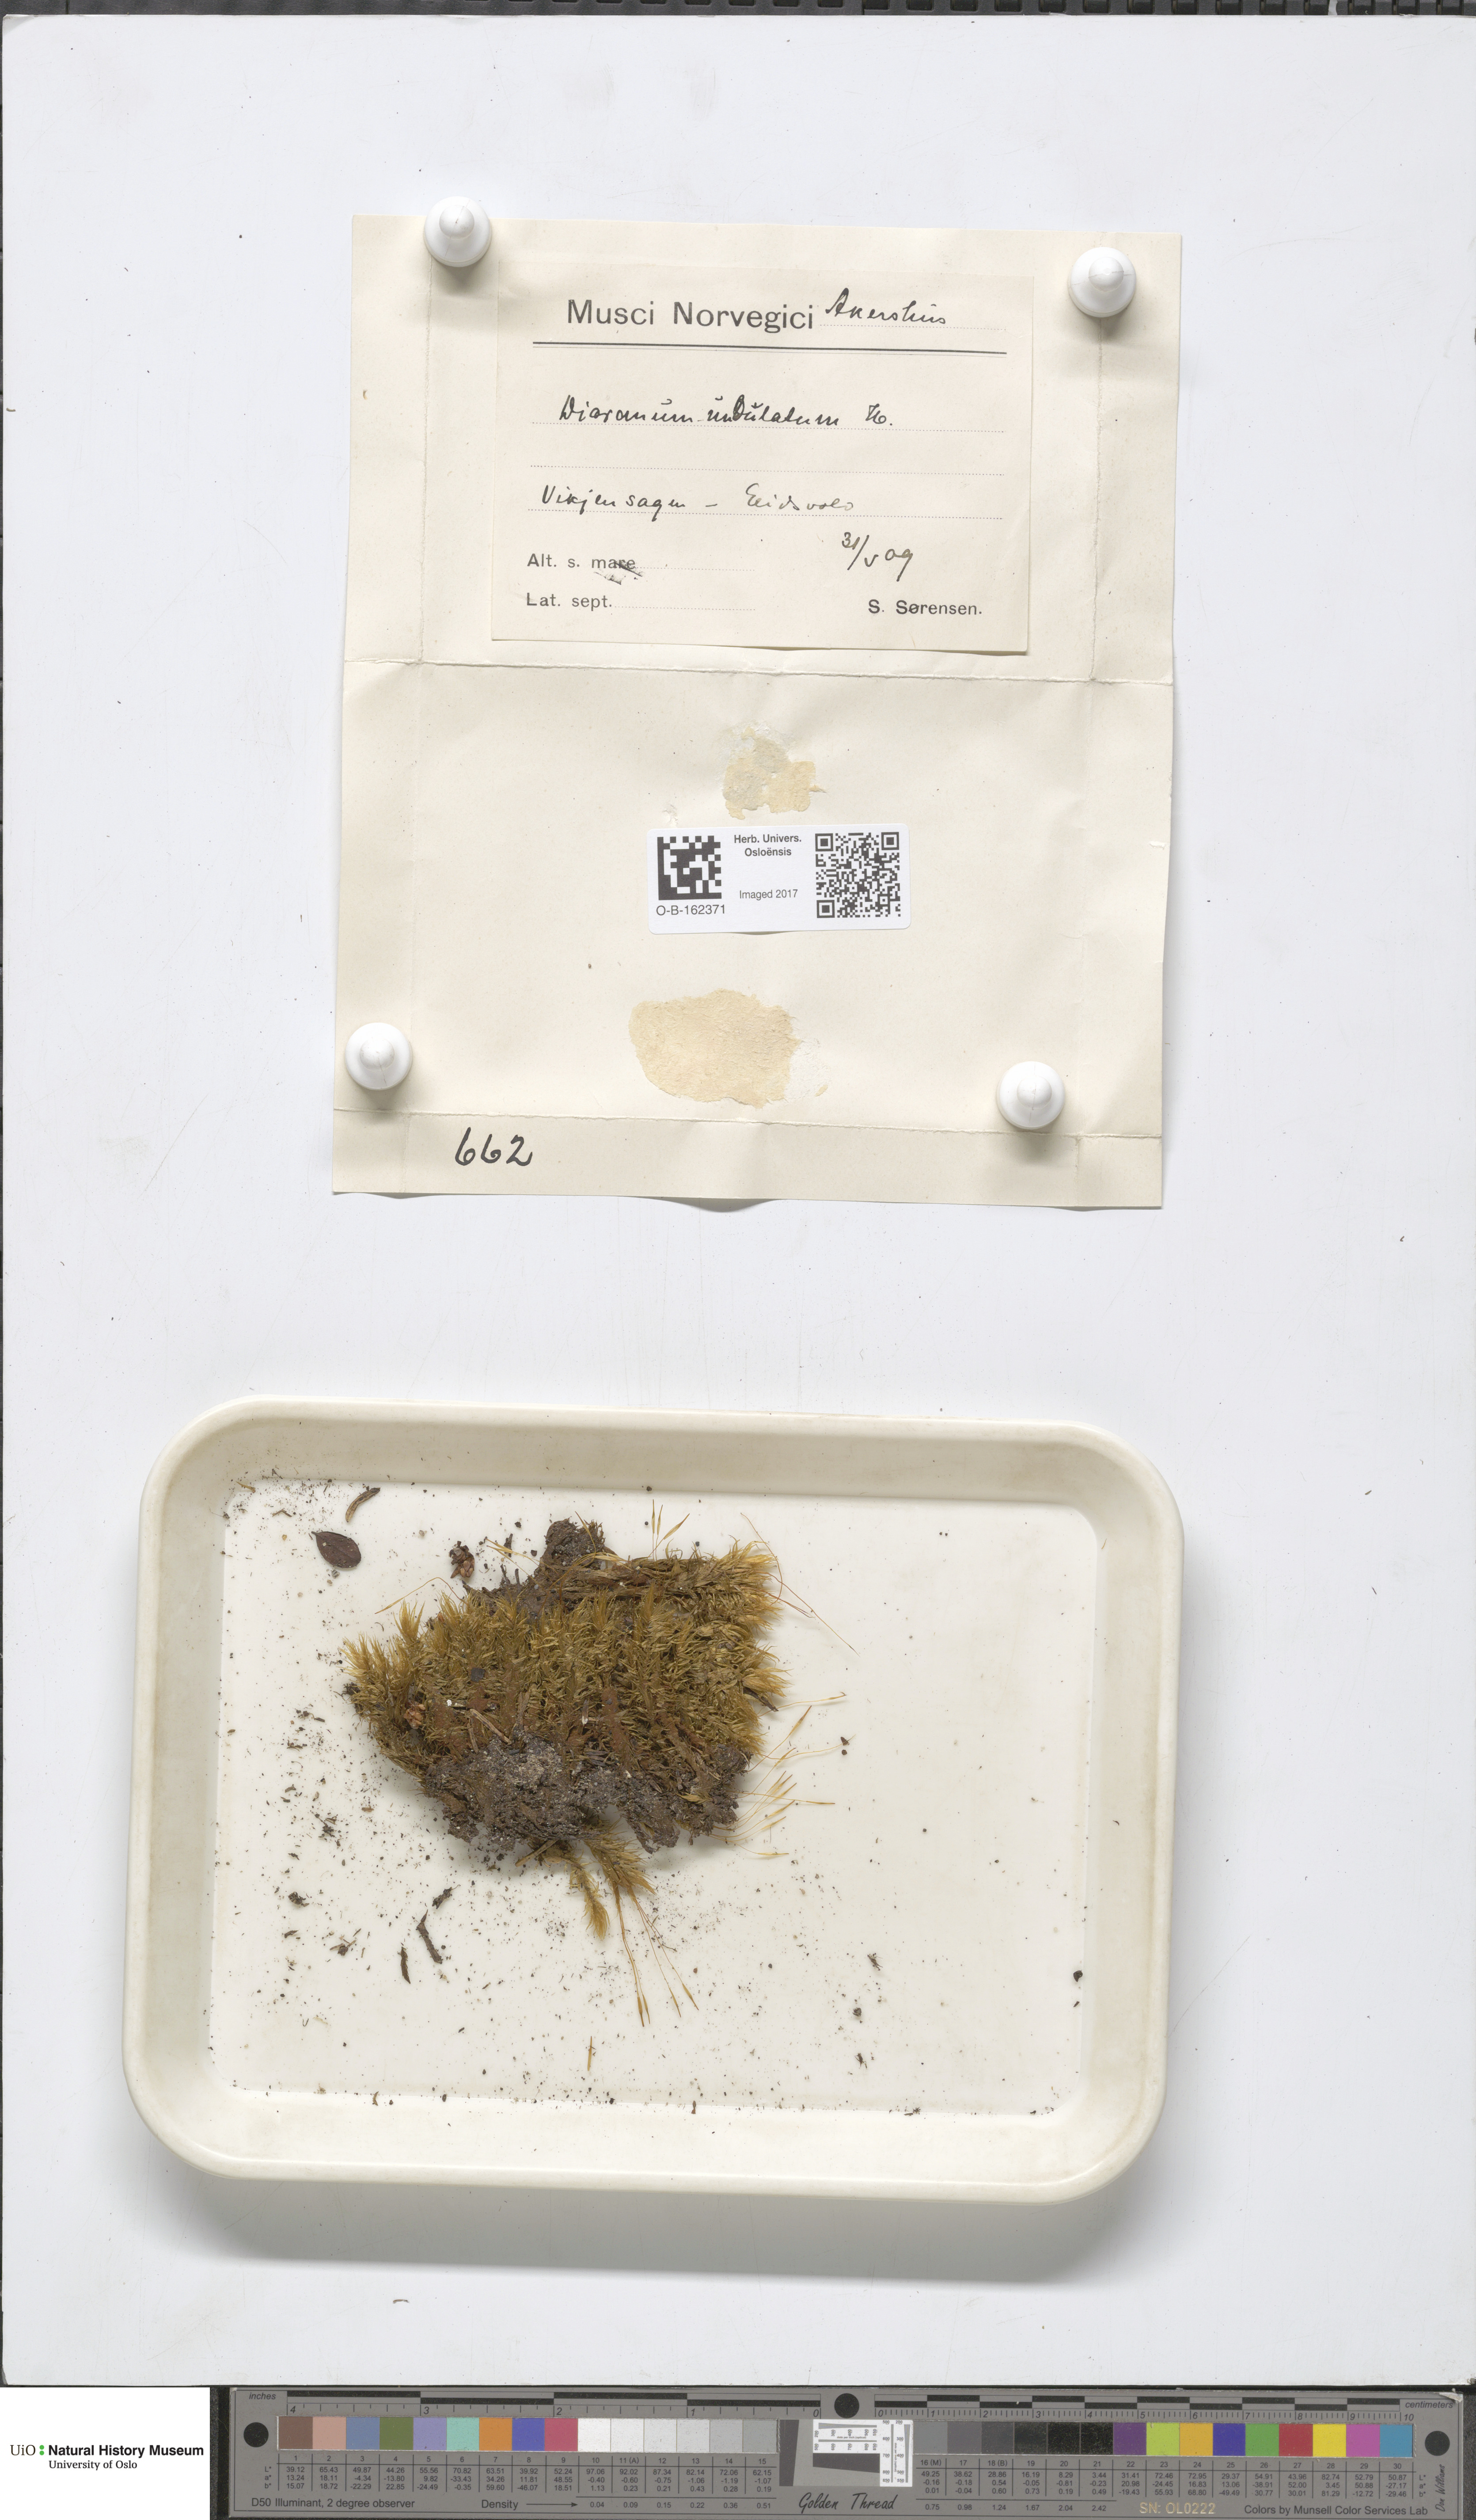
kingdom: Plantae
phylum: Bryophyta
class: Bryopsida
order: Dicranales
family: Dicranaceae
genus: Dicranum
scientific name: Dicranum polysetum
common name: Rugose fork-moss
